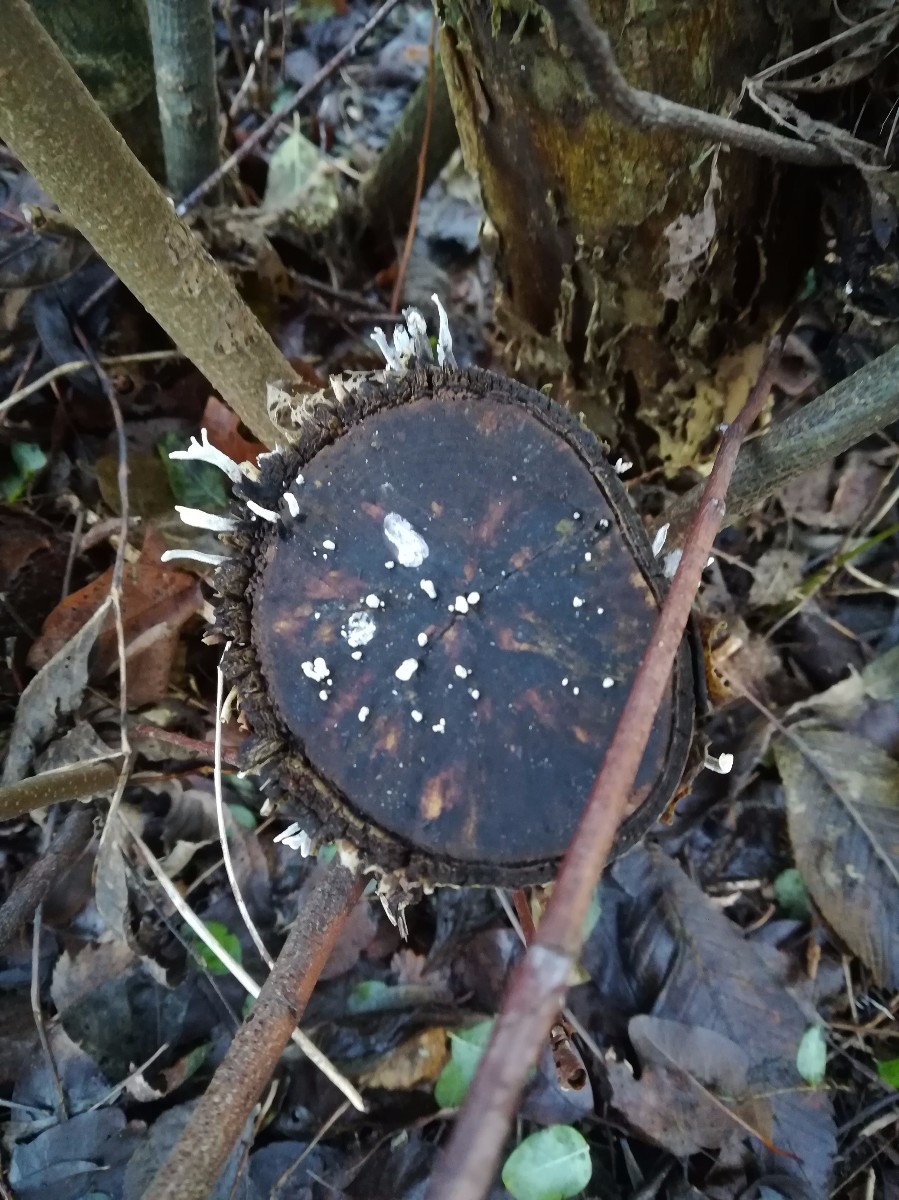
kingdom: Fungi
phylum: Ascomycota
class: Sordariomycetes
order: Xylariales
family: Xylariaceae
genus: Xylaria
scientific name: Xylaria hypoxylon
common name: grenet stødsvamp
